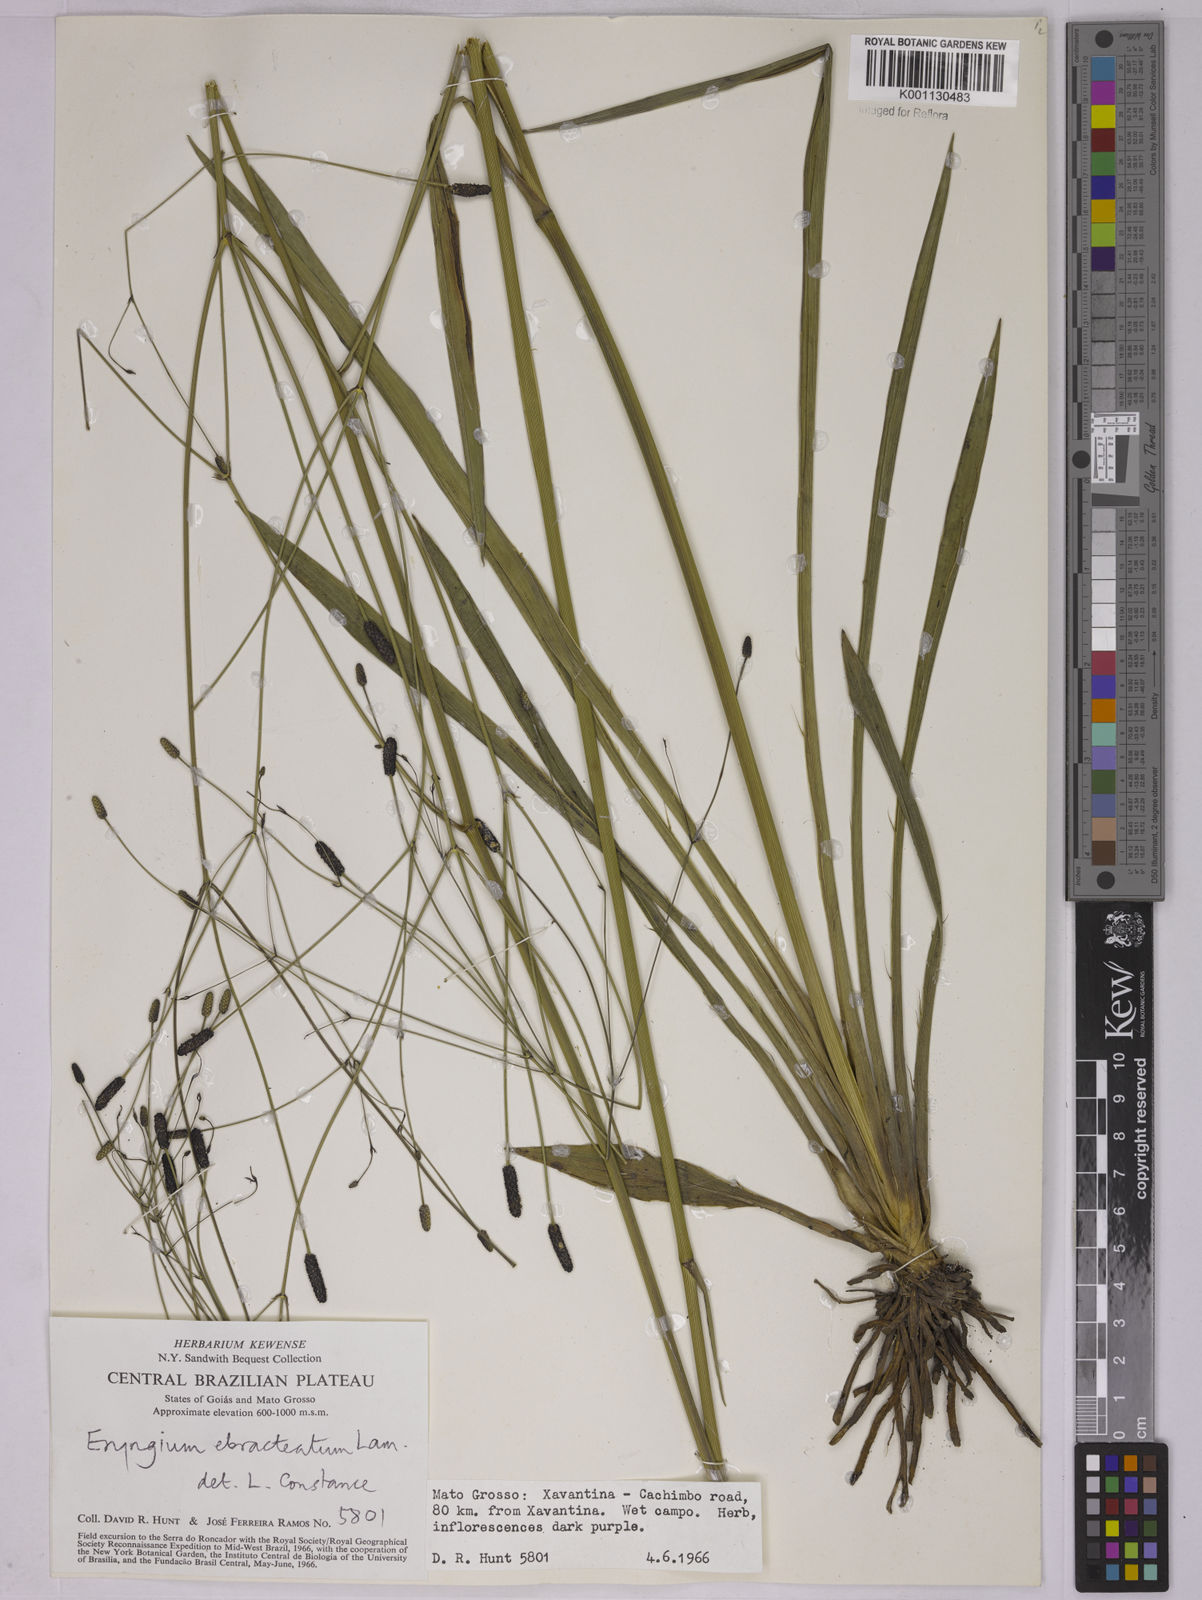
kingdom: Plantae
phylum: Tracheophyta
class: Magnoliopsida
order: Apiales
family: Apiaceae
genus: Eryngium
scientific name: Eryngium ebracteatum
